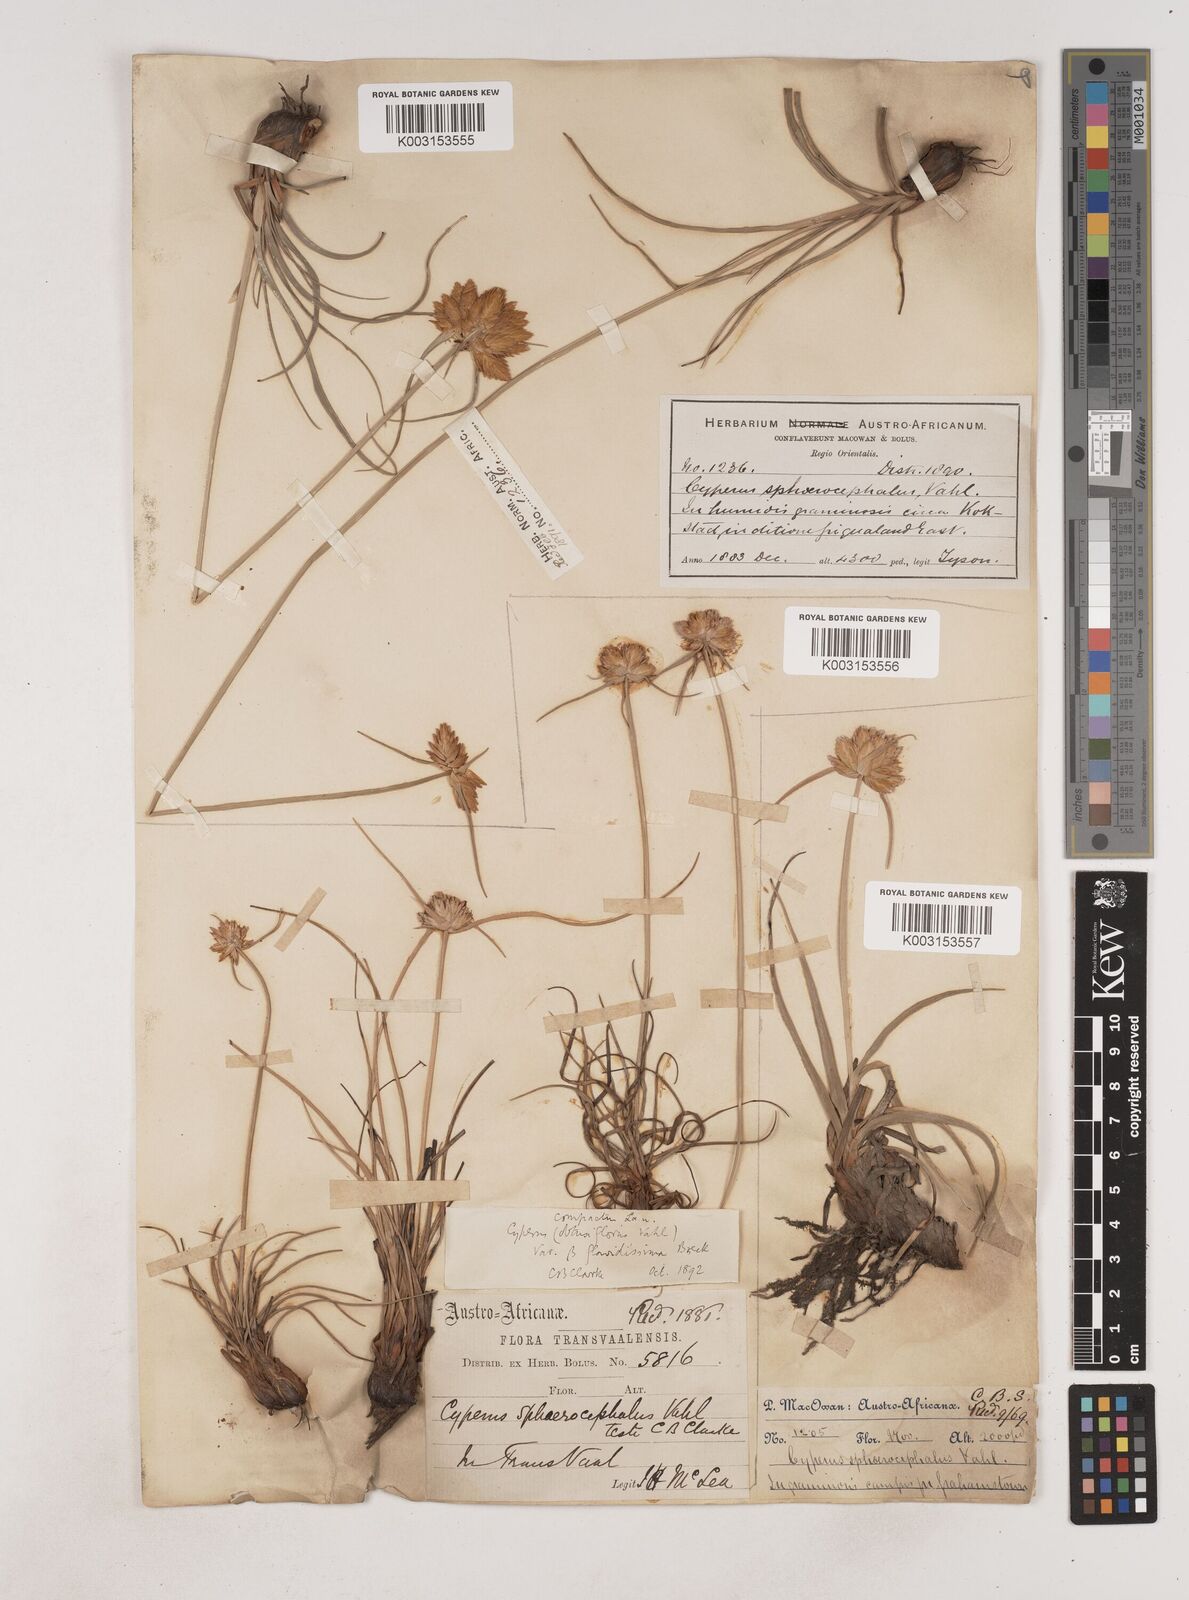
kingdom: Plantae
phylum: Tracheophyta
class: Liliopsida
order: Poales
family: Cyperaceae
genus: Cyperus
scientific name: Cyperus niveus
